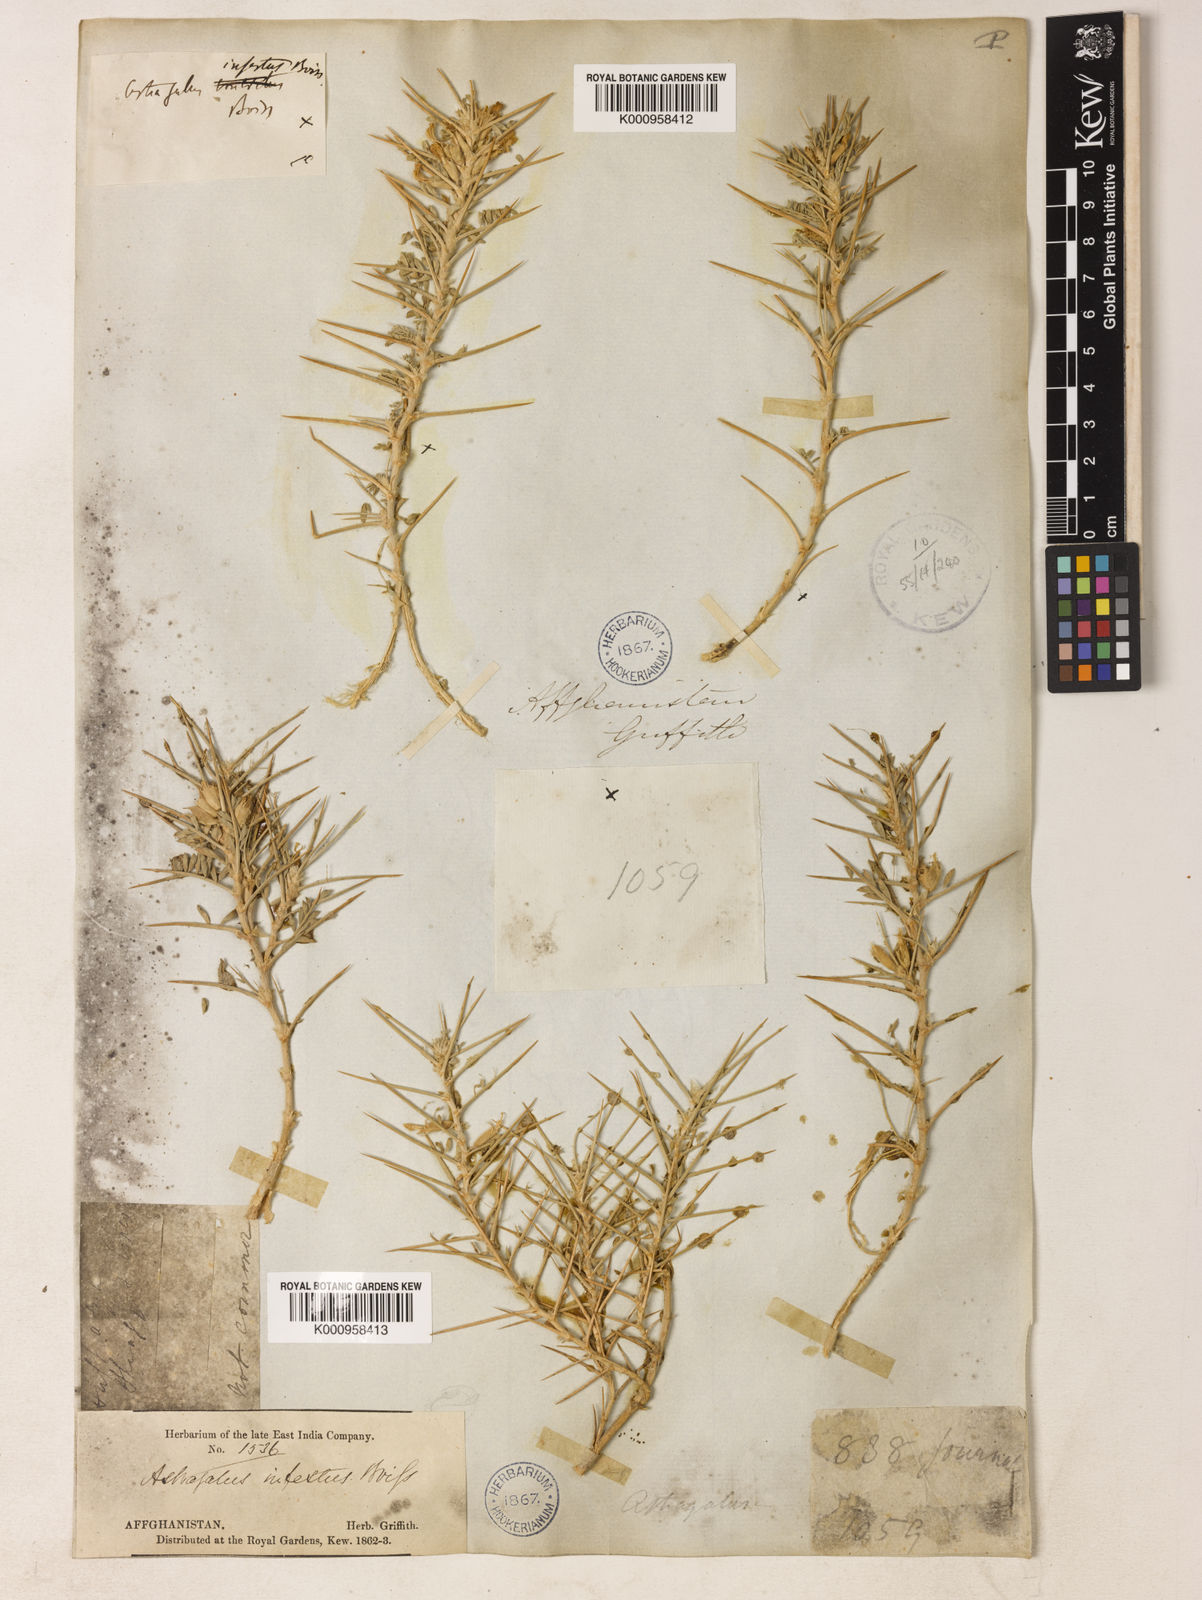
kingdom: Plantae
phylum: Tracheophyta
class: Magnoliopsida
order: Fabales
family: Fabaceae
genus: Astragalus
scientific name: Astragalus infestus
